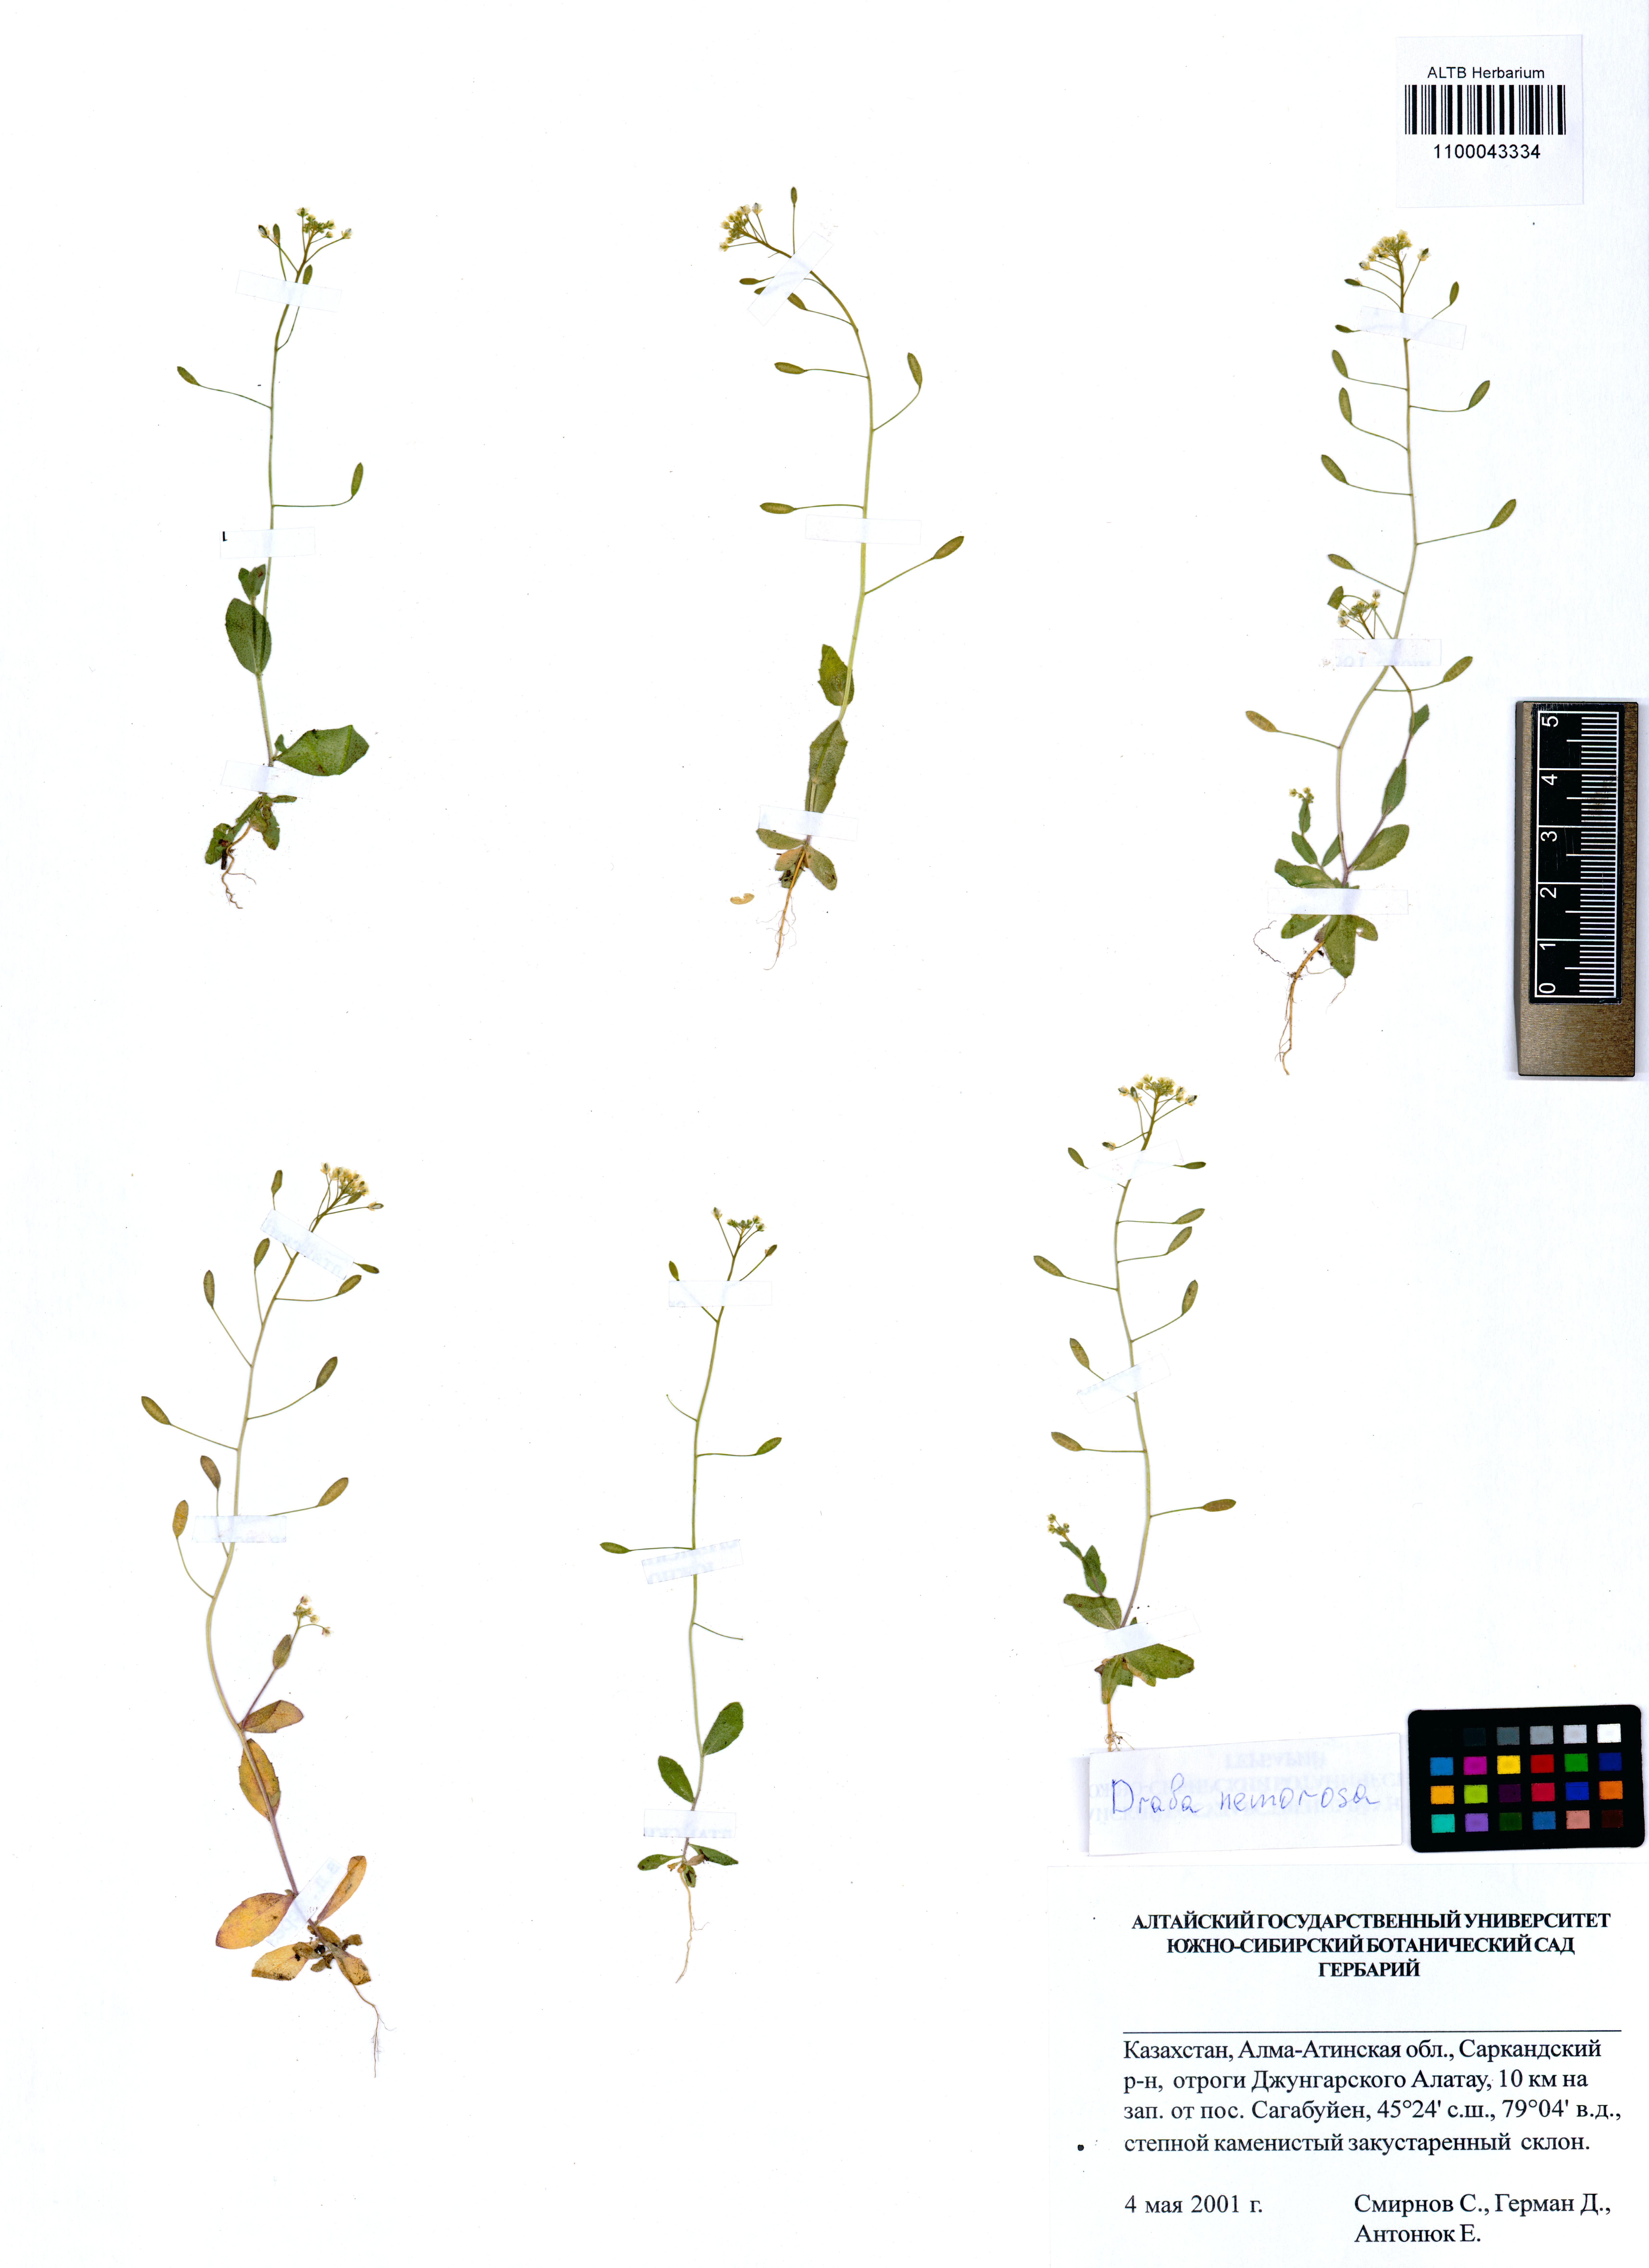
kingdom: Plantae
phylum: Tracheophyta
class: Magnoliopsida
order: Brassicales
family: Brassicaceae
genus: Draba
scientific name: Draba nemorosa
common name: Wood whitlow-grass
